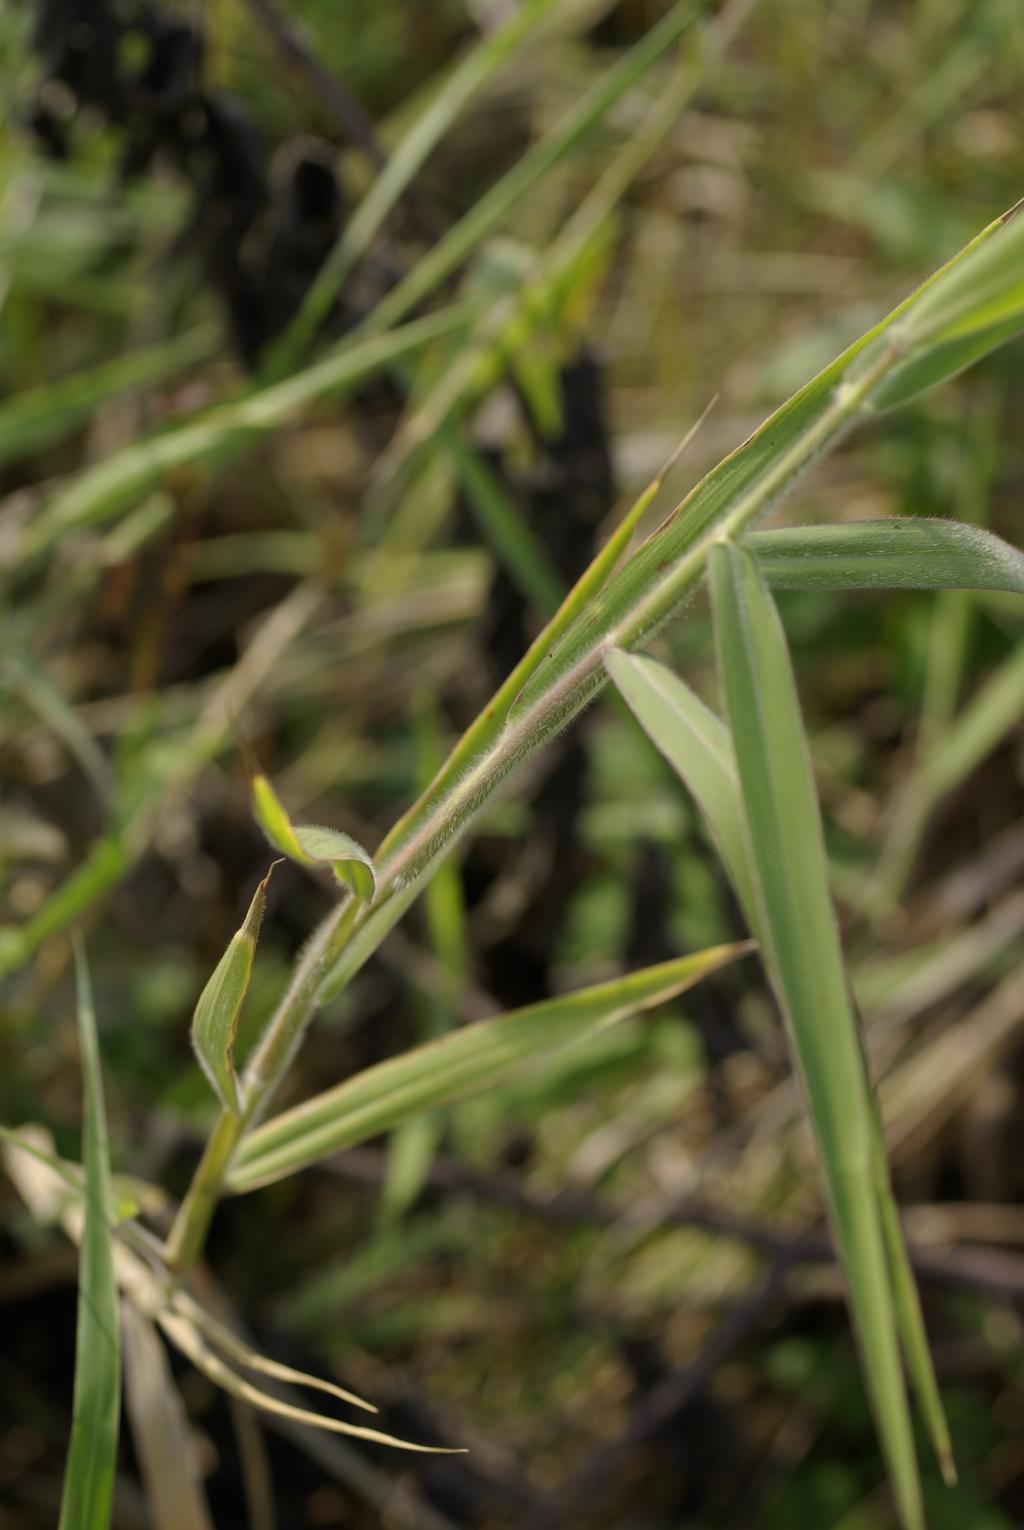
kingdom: Plantae
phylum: Tracheophyta
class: Liliopsida
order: Poales
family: Poaceae
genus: Urochloa
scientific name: Urochloa mutica
